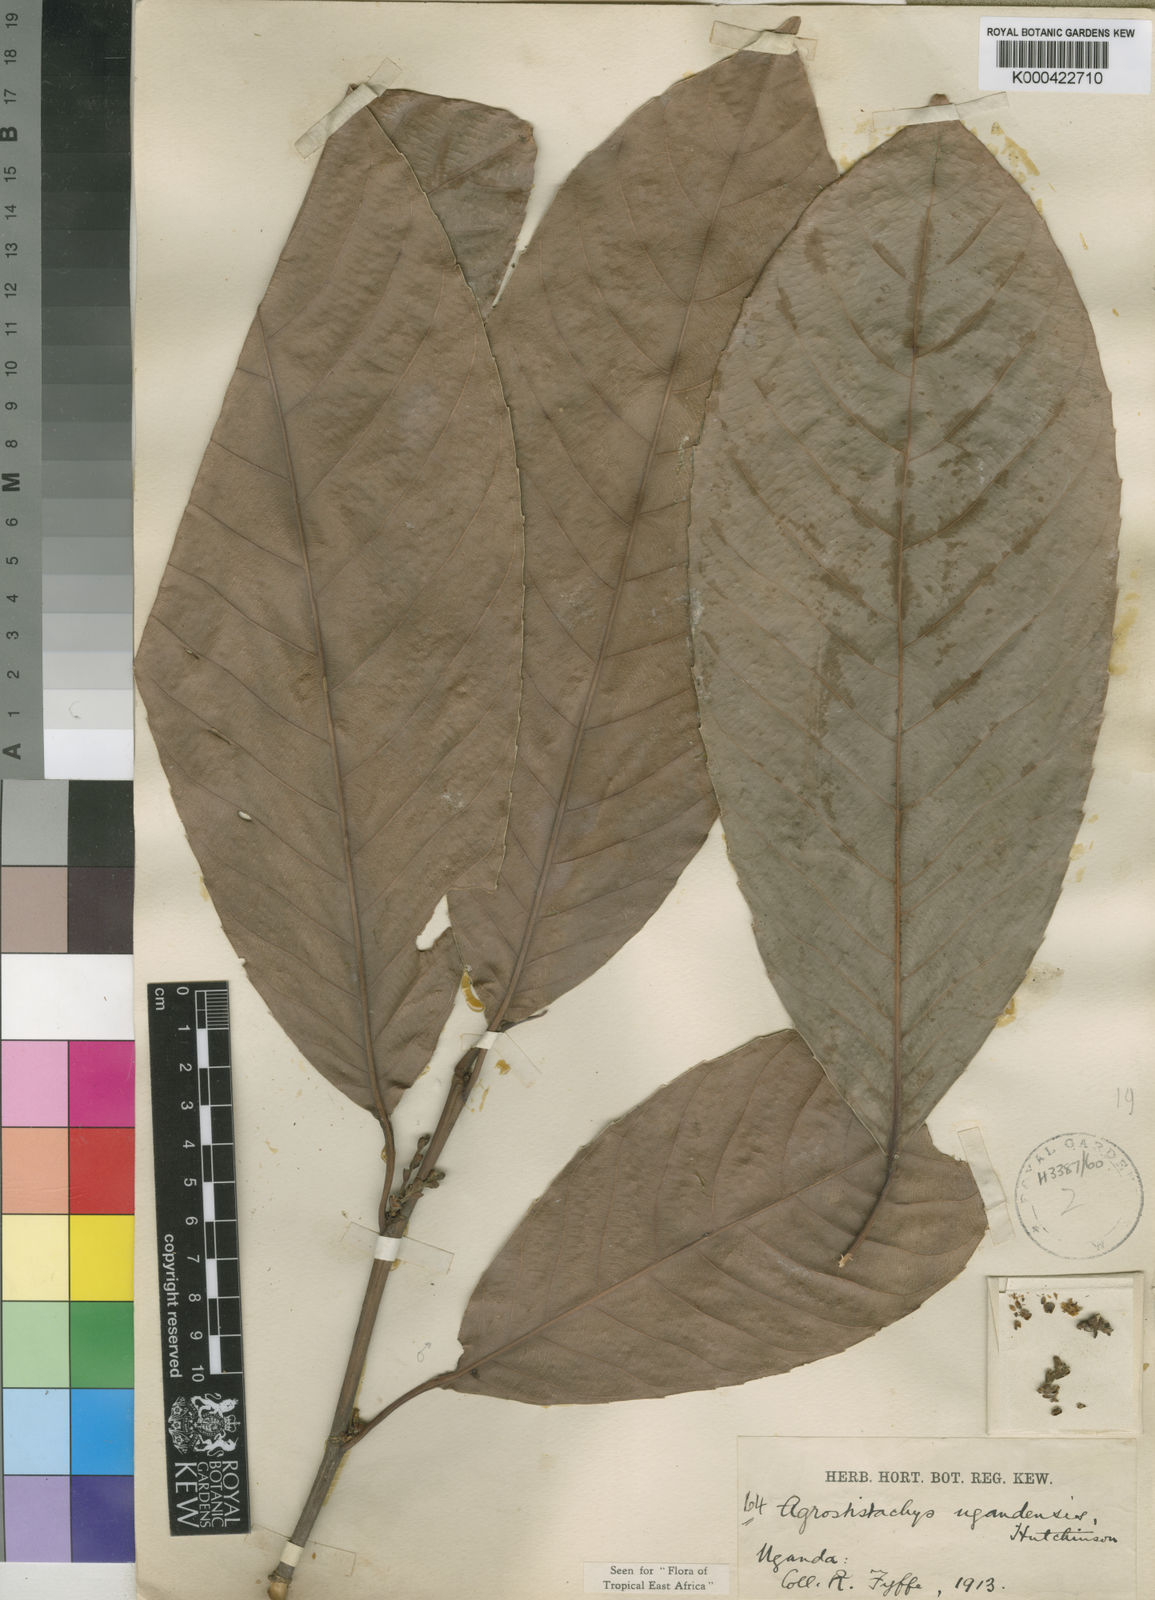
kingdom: Plantae
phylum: Tracheophyta
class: Magnoliopsida
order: Malpighiales
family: Euphorbiaceae
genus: Pseudagrostistachys
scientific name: Pseudagrostistachys ugandensis
